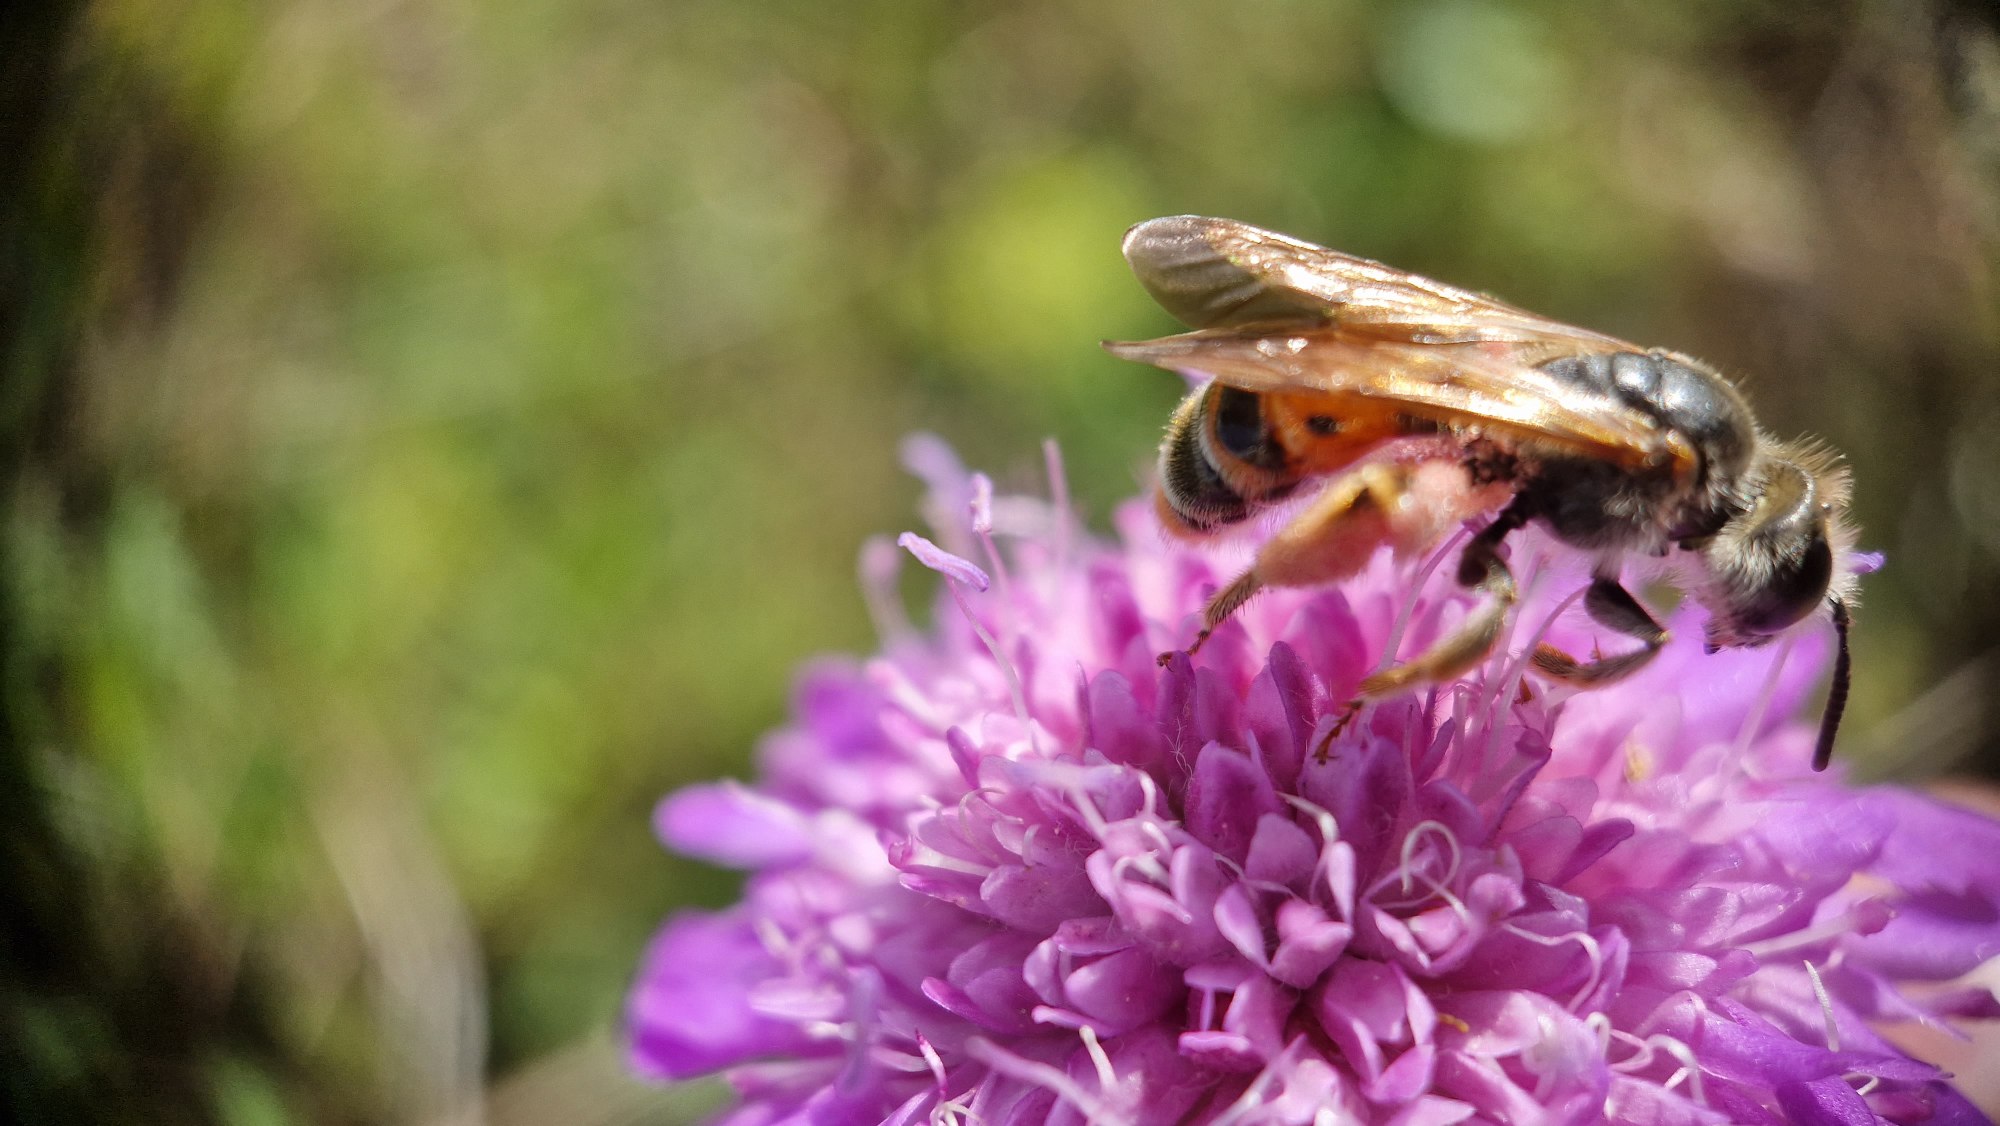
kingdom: Animalia
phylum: Arthropoda
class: Insecta
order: Hymenoptera
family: Andrenidae
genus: Andrena
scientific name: Andrena hattorfiana
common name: Blåhatjordbi
